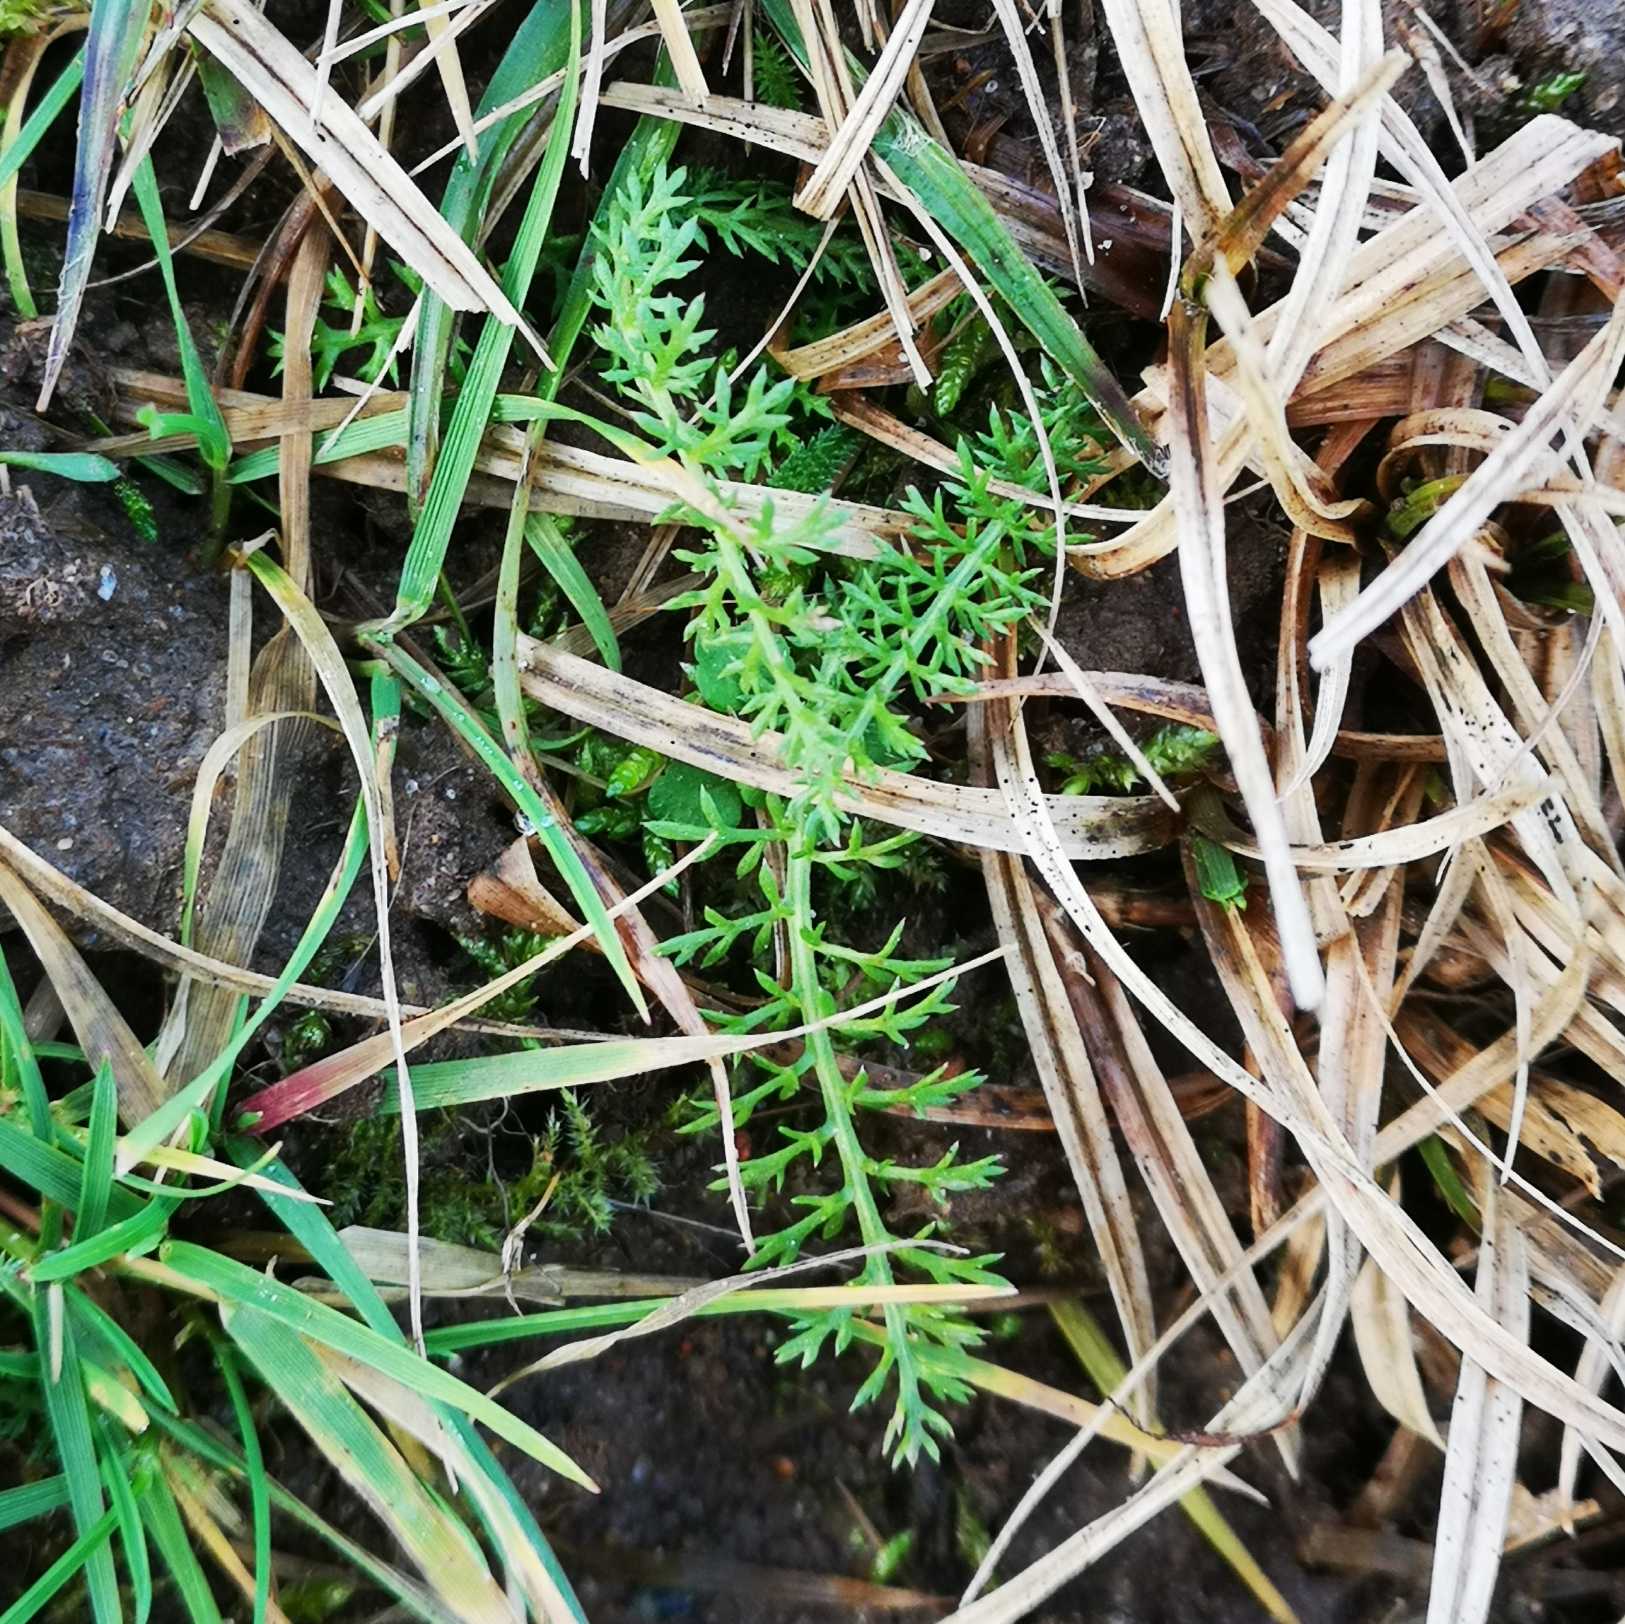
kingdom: Plantae
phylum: Tracheophyta
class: Magnoliopsida
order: Asterales
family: Asteraceae
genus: Achillea
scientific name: Achillea millefolium
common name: Almindelig røllike
